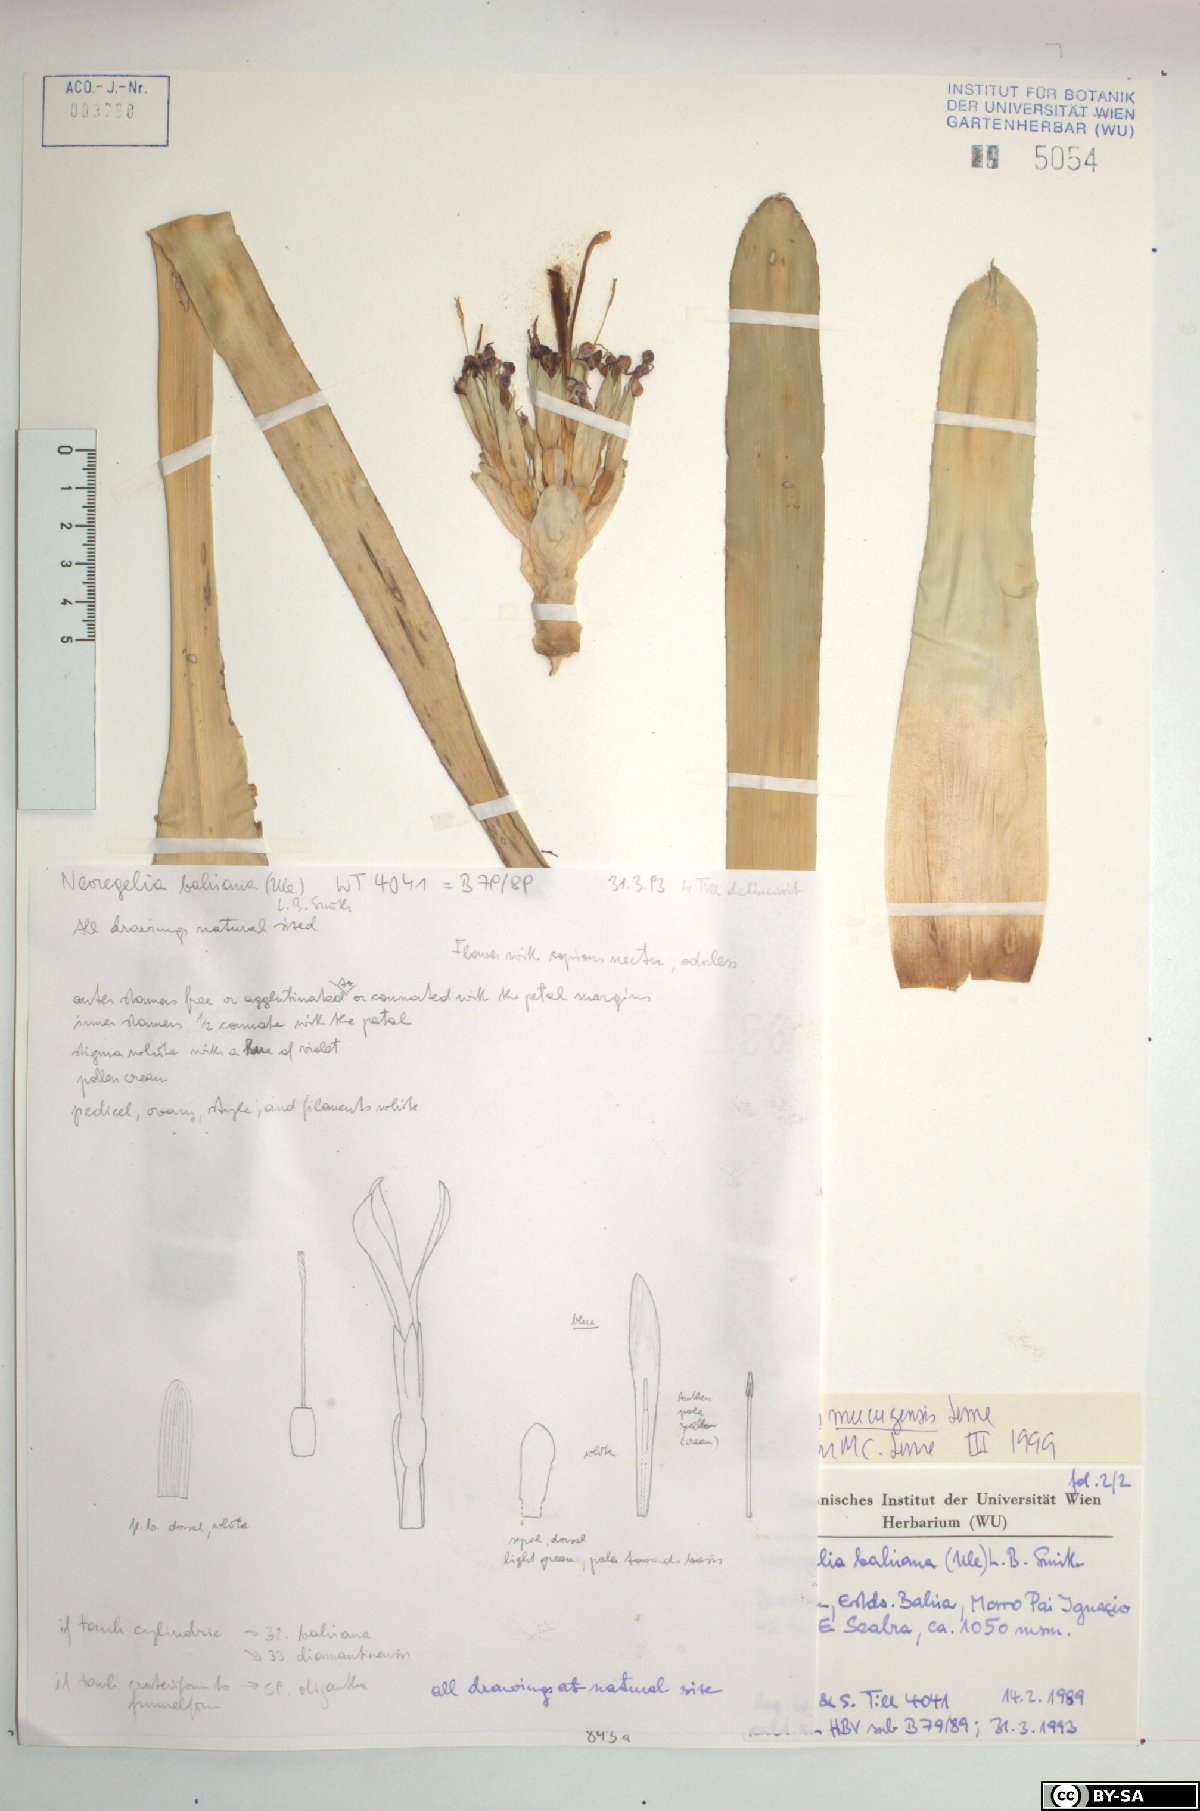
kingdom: Plantae
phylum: Tracheophyta
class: Liliopsida
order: Poales
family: Bromeliaceae
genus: Neoregelia
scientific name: Neoregelia mucugensis
